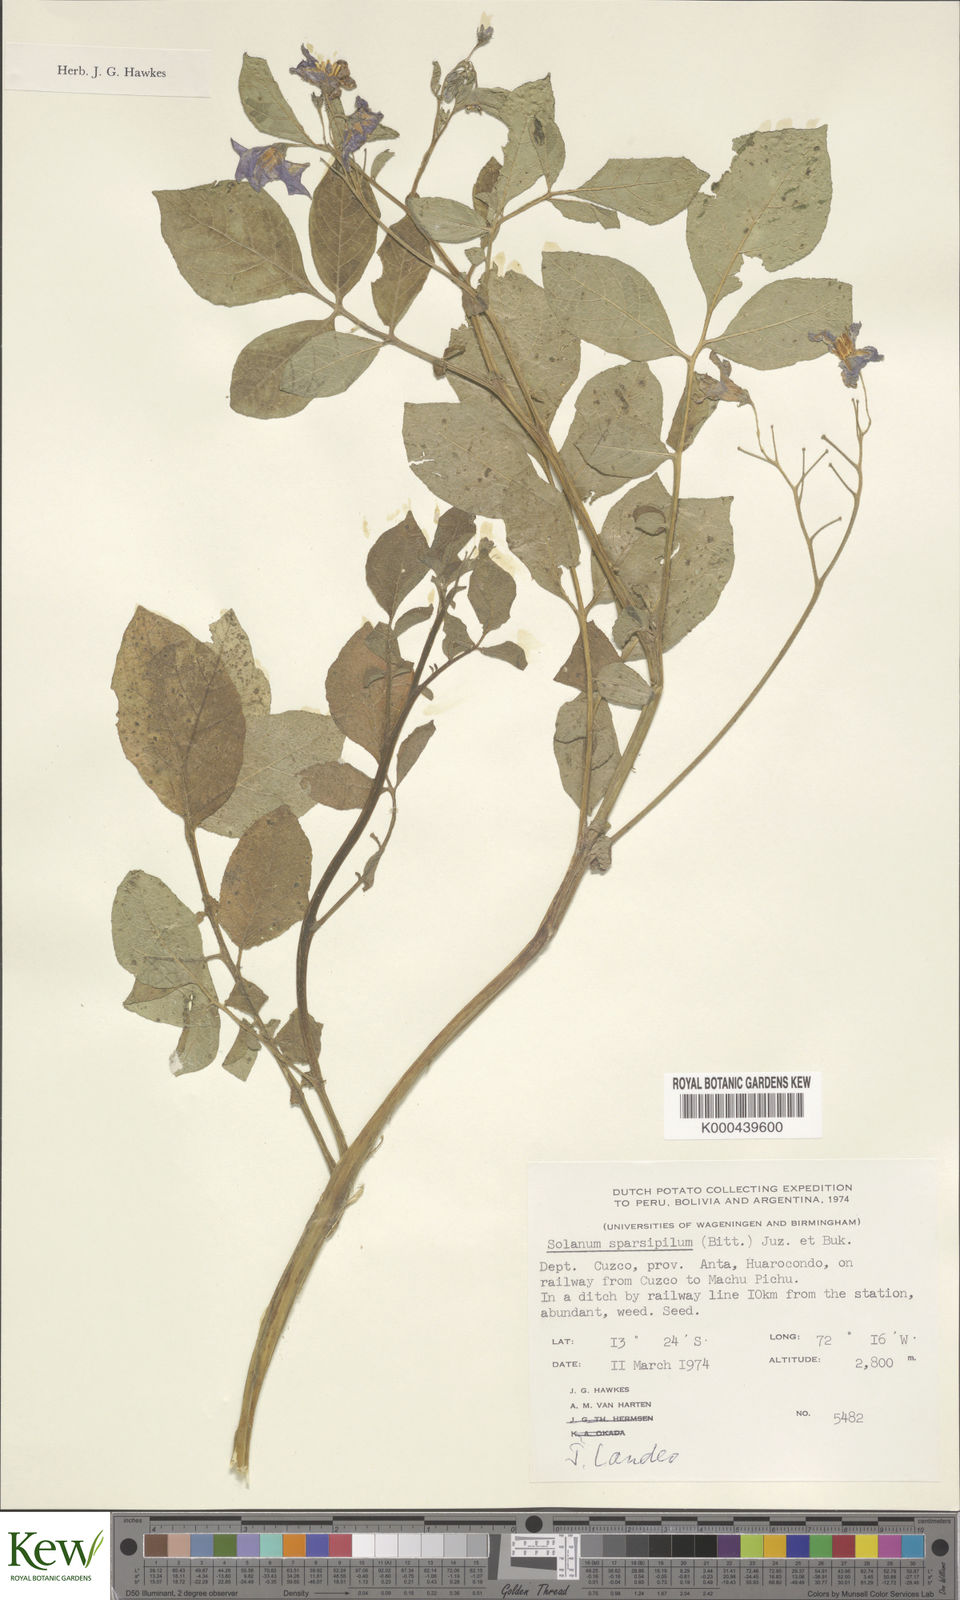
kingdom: Plantae
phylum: Tracheophyta
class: Magnoliopsida
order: Solanales
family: Solanaceae
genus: Solanum
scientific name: Solanum brevicaule
